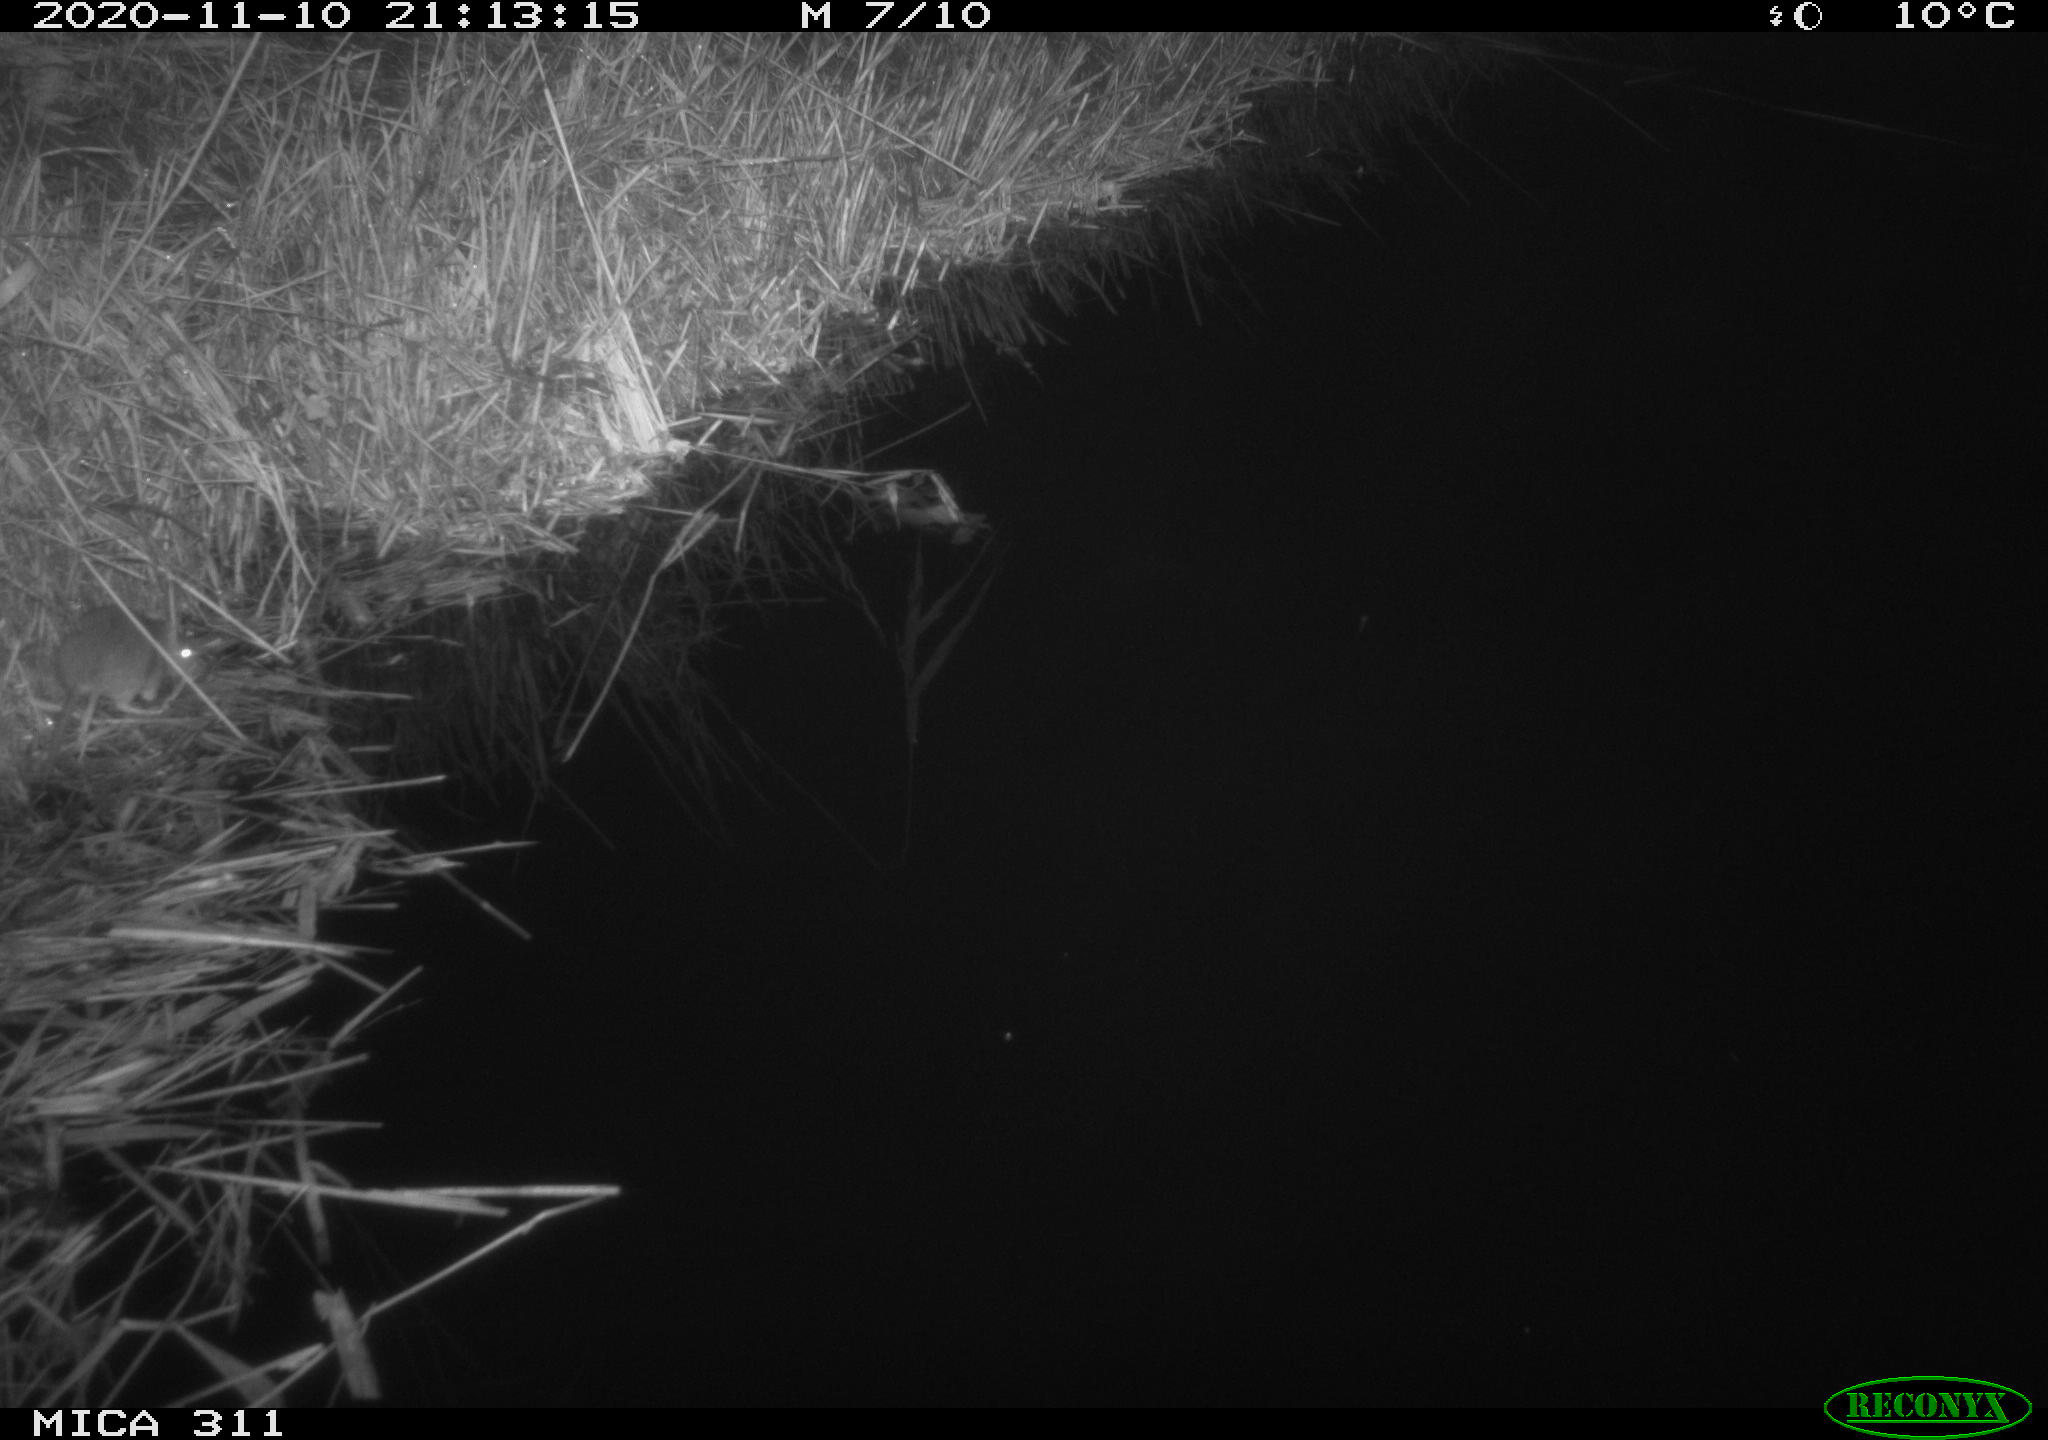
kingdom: Animalia
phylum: Chordata
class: Mammalia
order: Rodentia
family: Muridae
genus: Rattus
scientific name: Rattus norvegicus
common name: Brown rat
